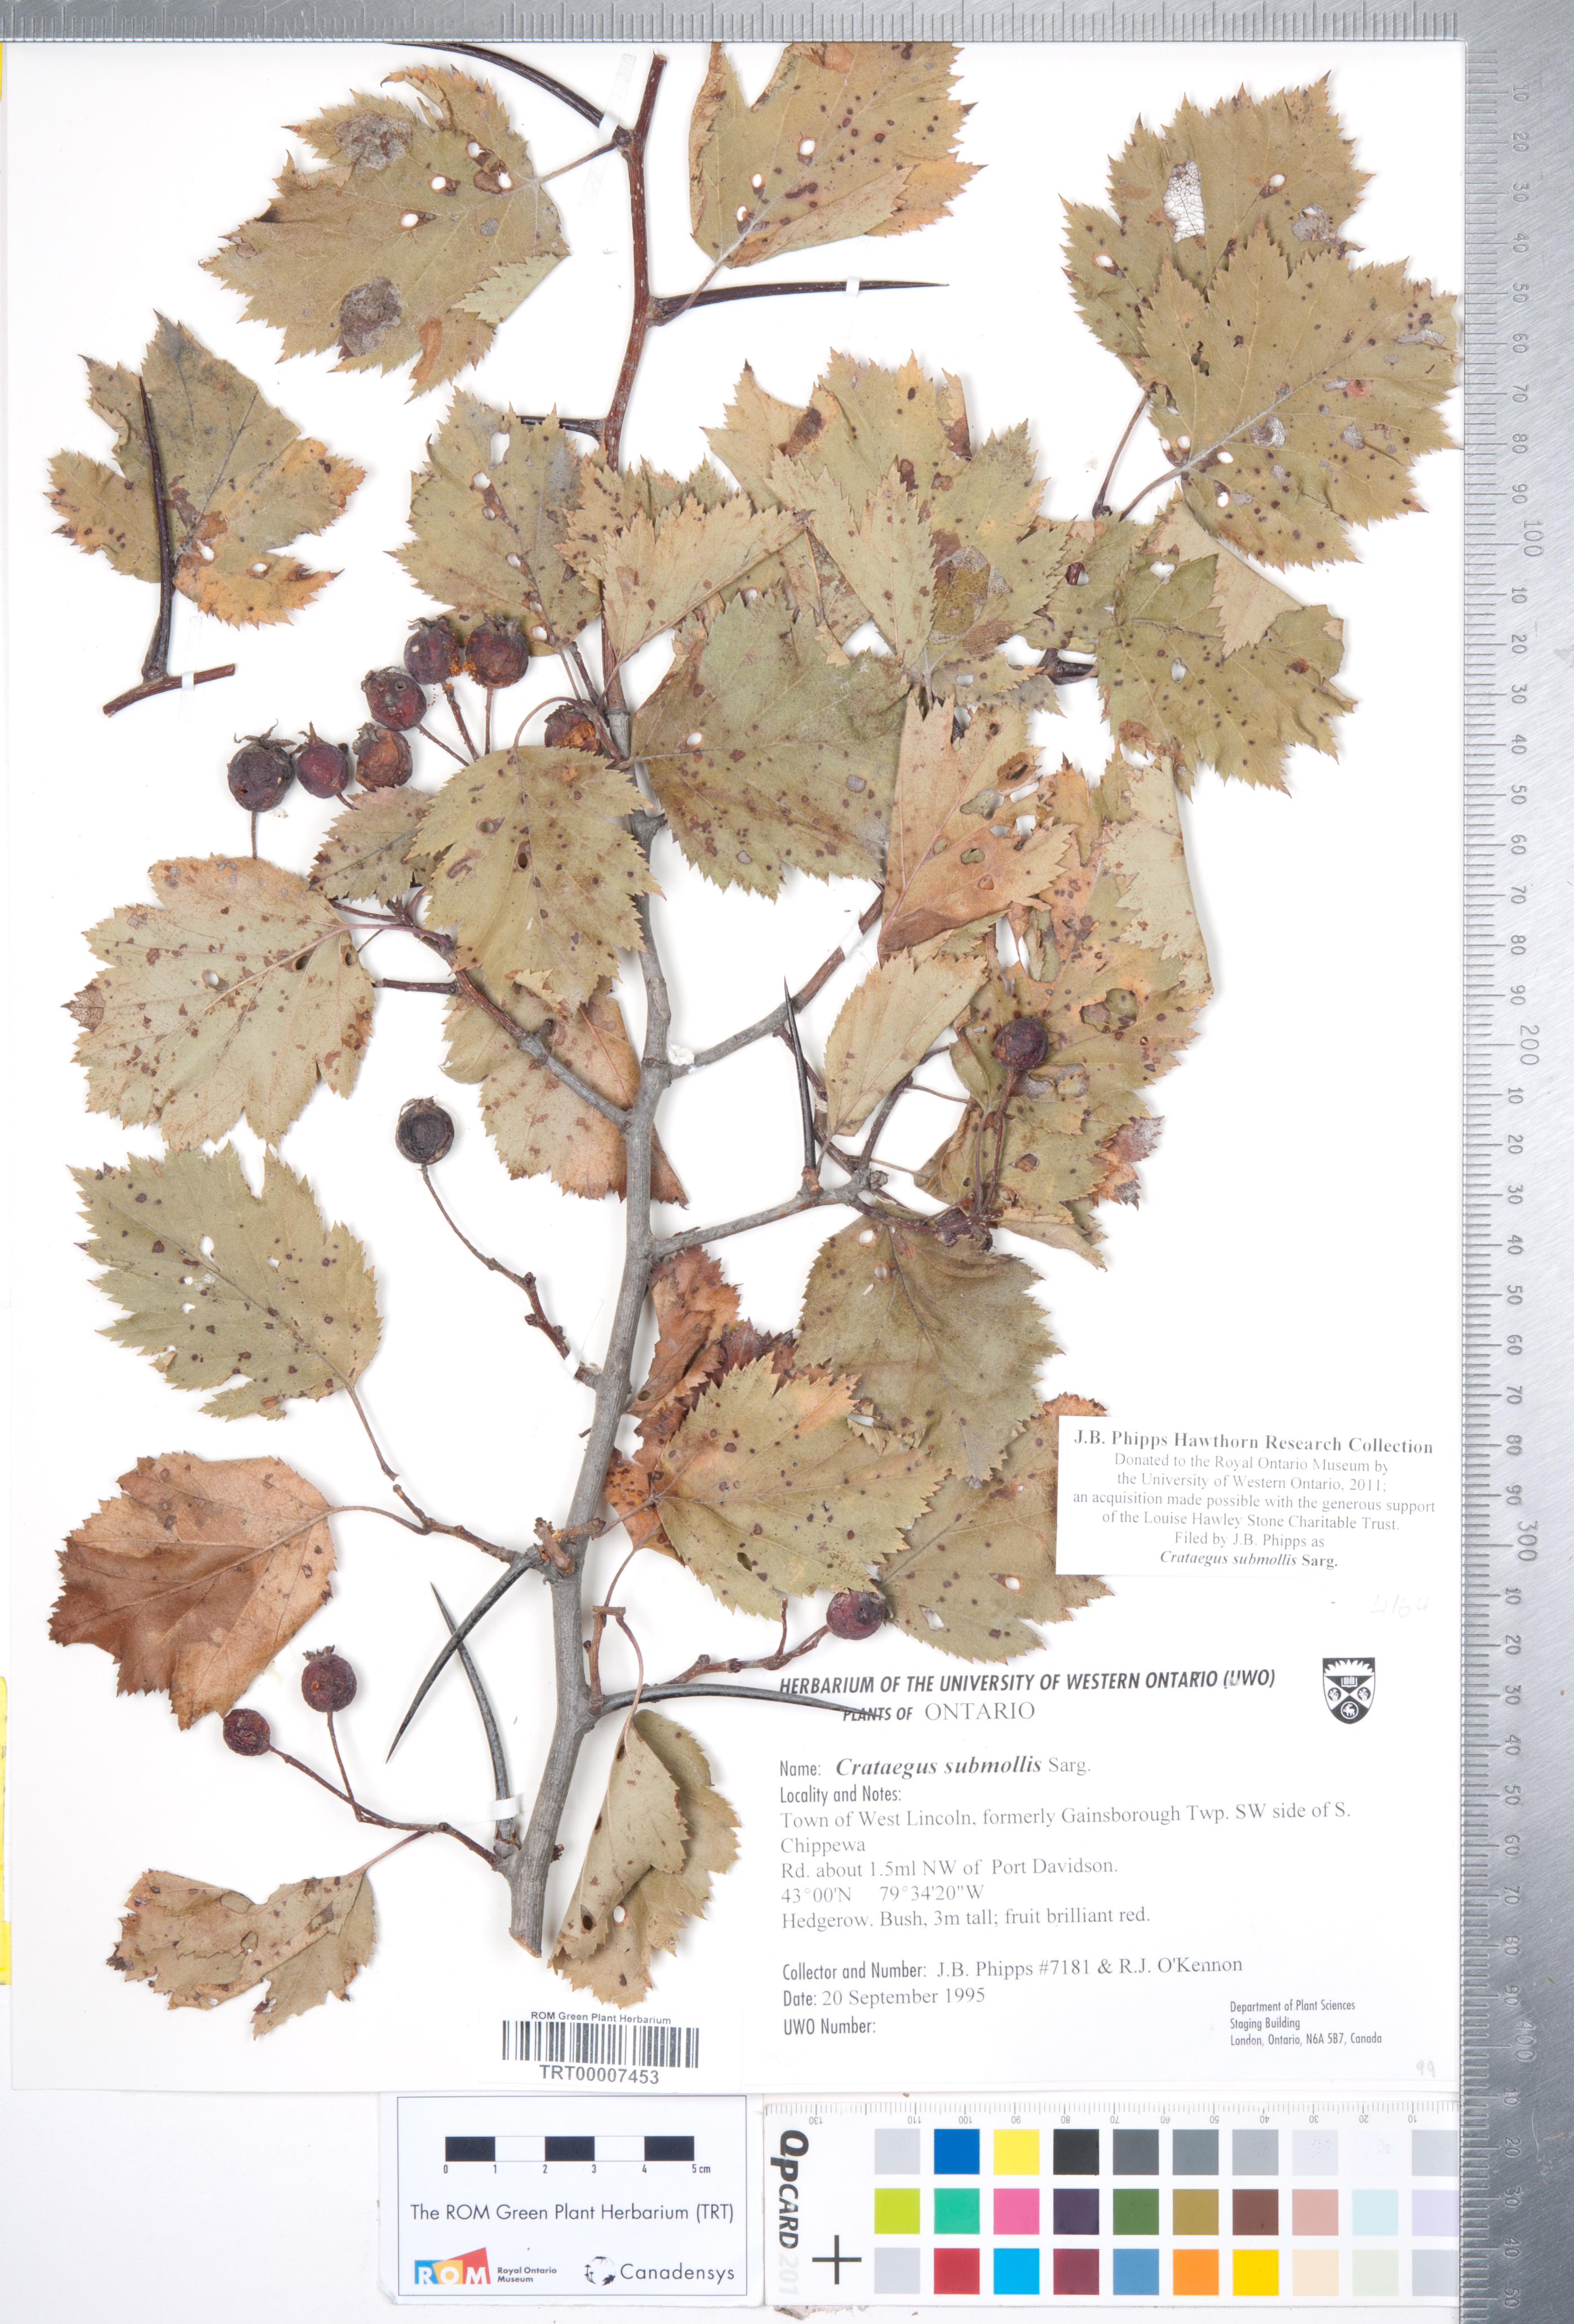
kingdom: Plantae
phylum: Tracheophyta
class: Magnoliopsida
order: Rosales
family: Rosaceae
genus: Crataegus
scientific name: Crataegus submollis
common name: Hairy cockspurthorn
